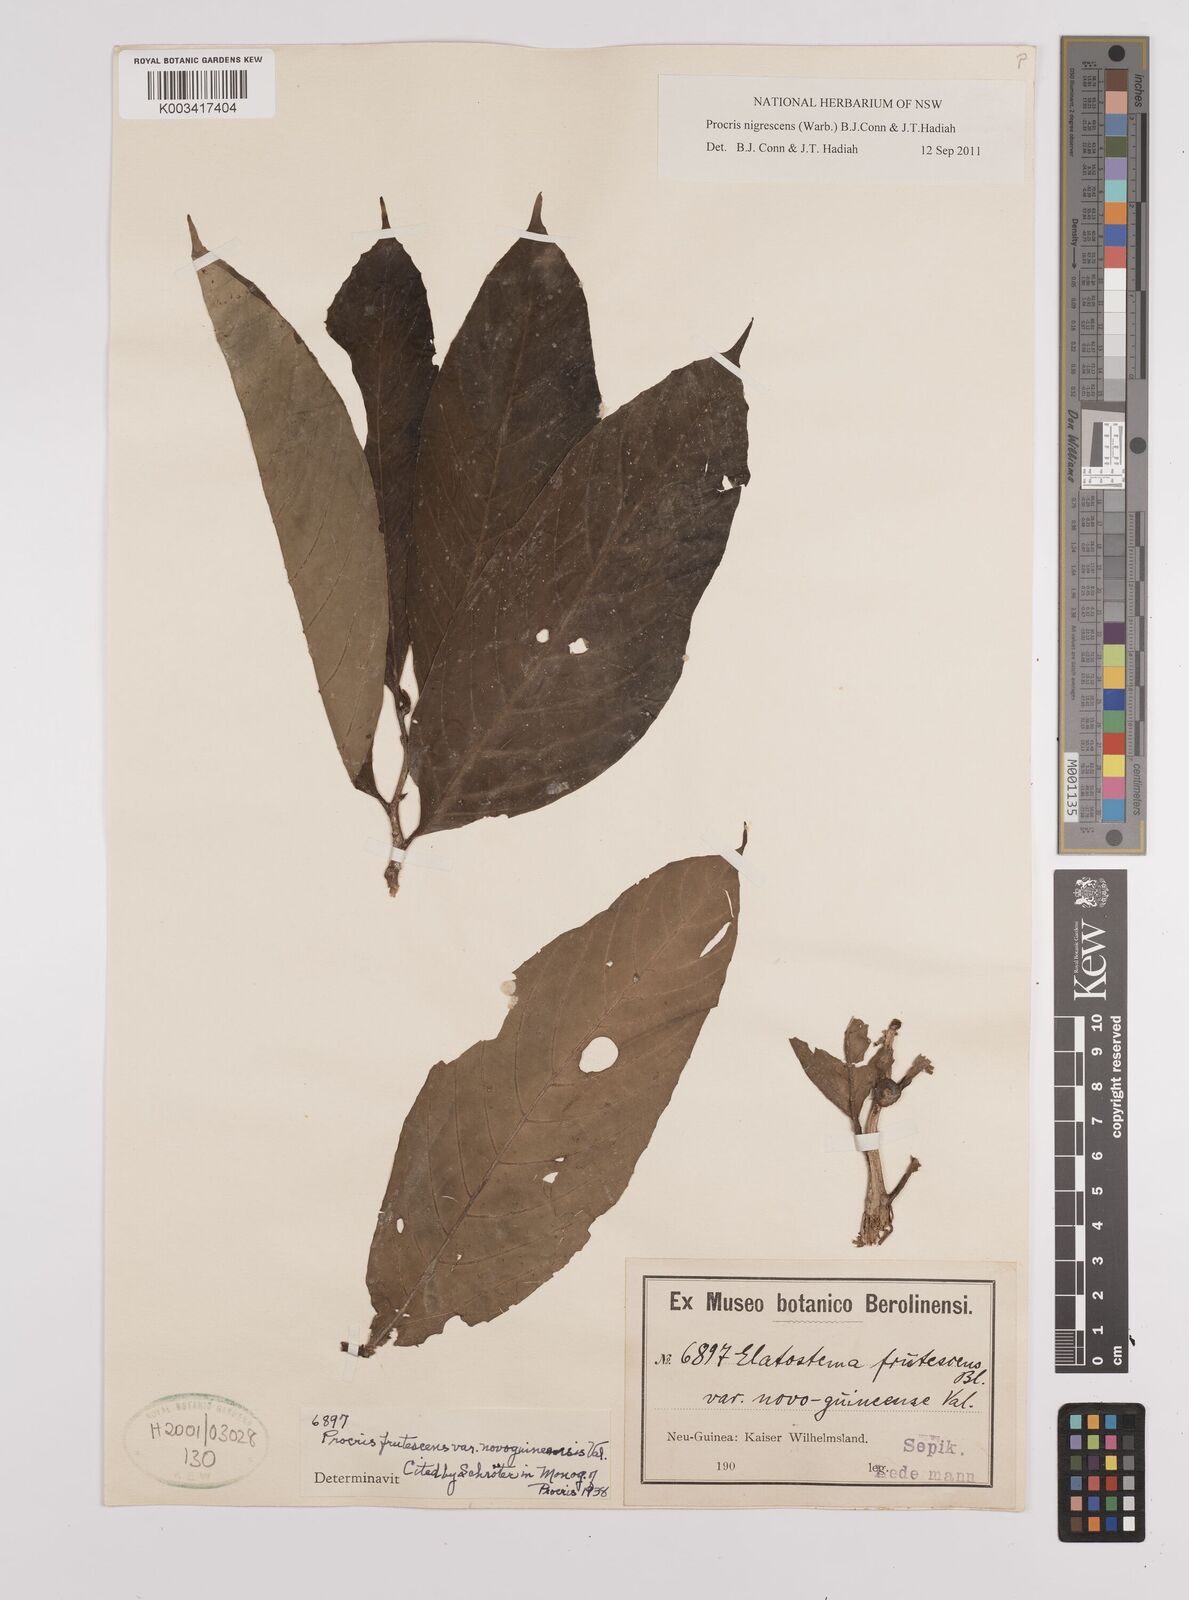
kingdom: Plantae
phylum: Tracheophyta
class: Magnoliopsida
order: Rosales
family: Urticaceae
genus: Procris
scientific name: Procris frutescens
